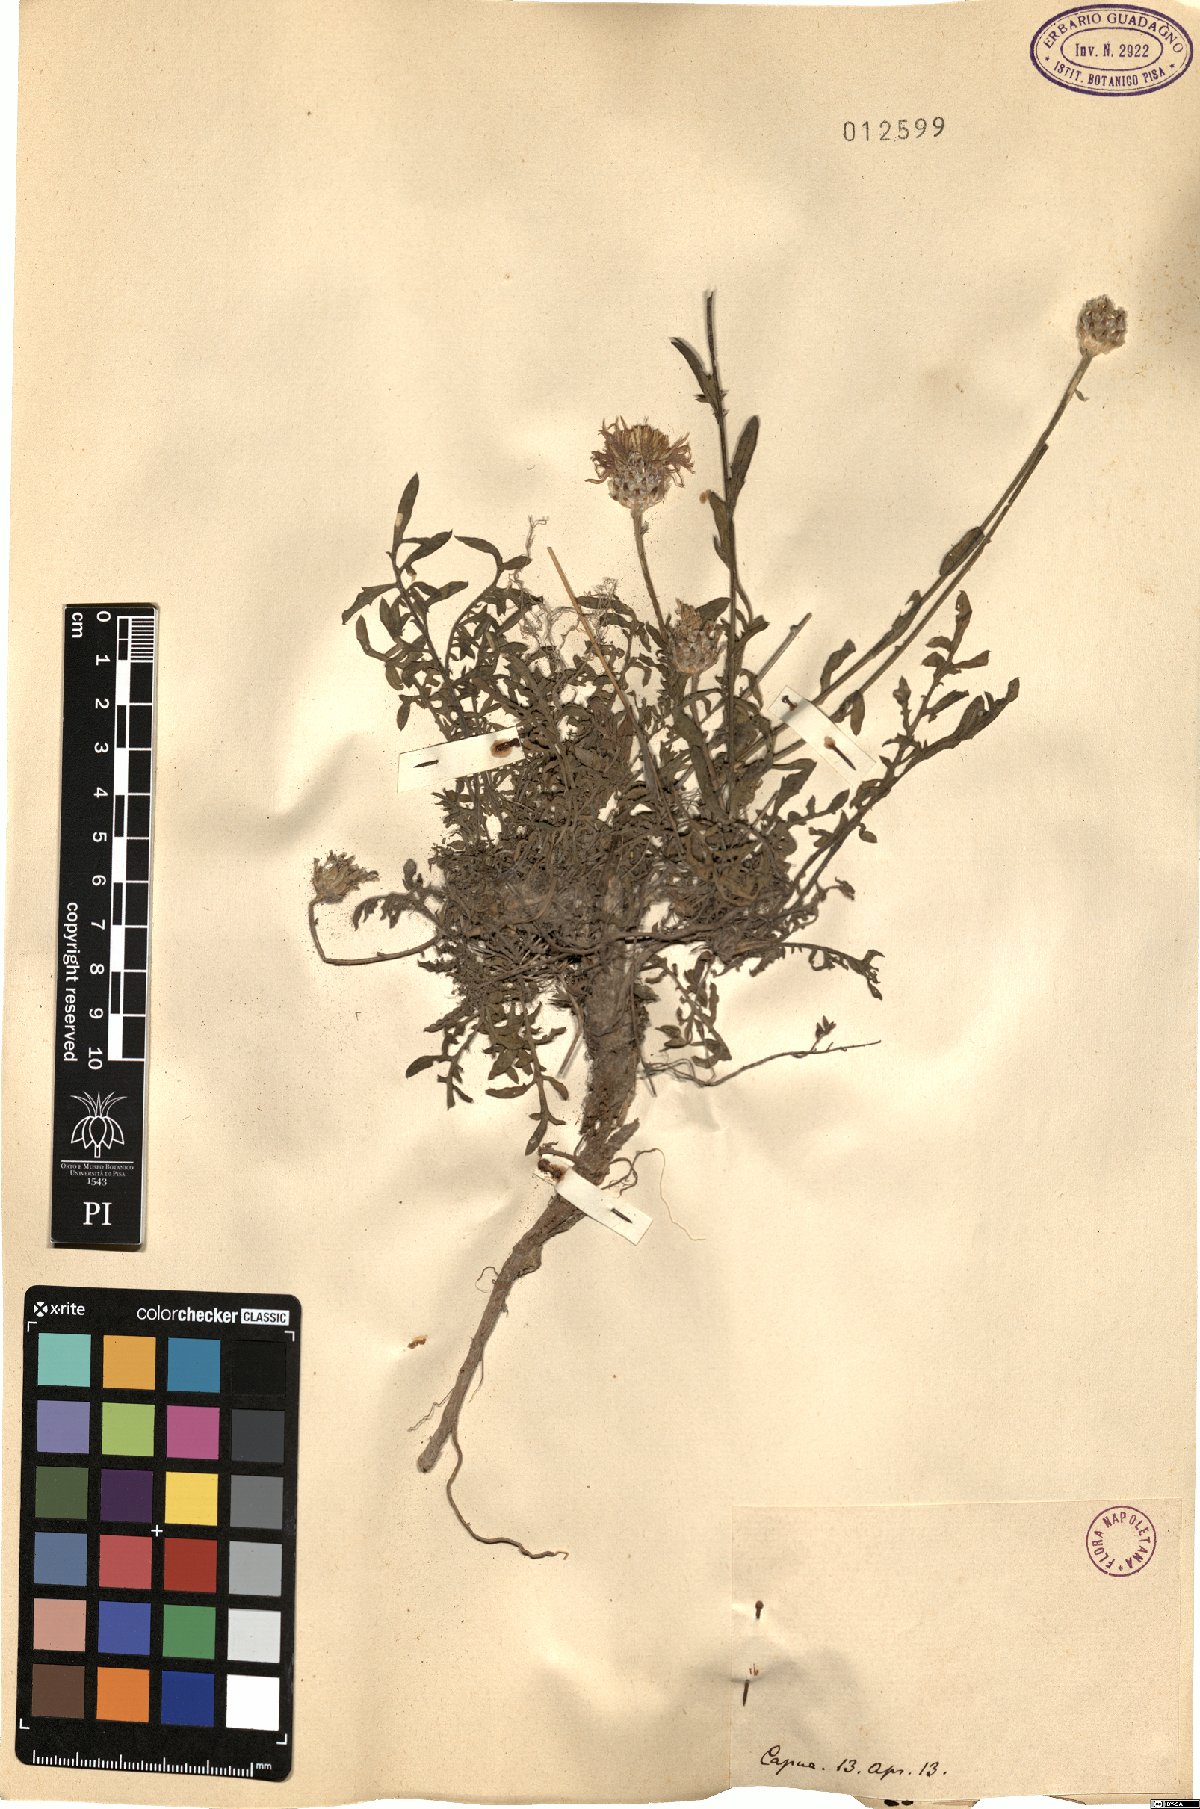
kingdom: Plantae
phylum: Tracheophyta
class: Magnoliopsida
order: Asterales
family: Asteraceae
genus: Centaurea
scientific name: Centaurea
